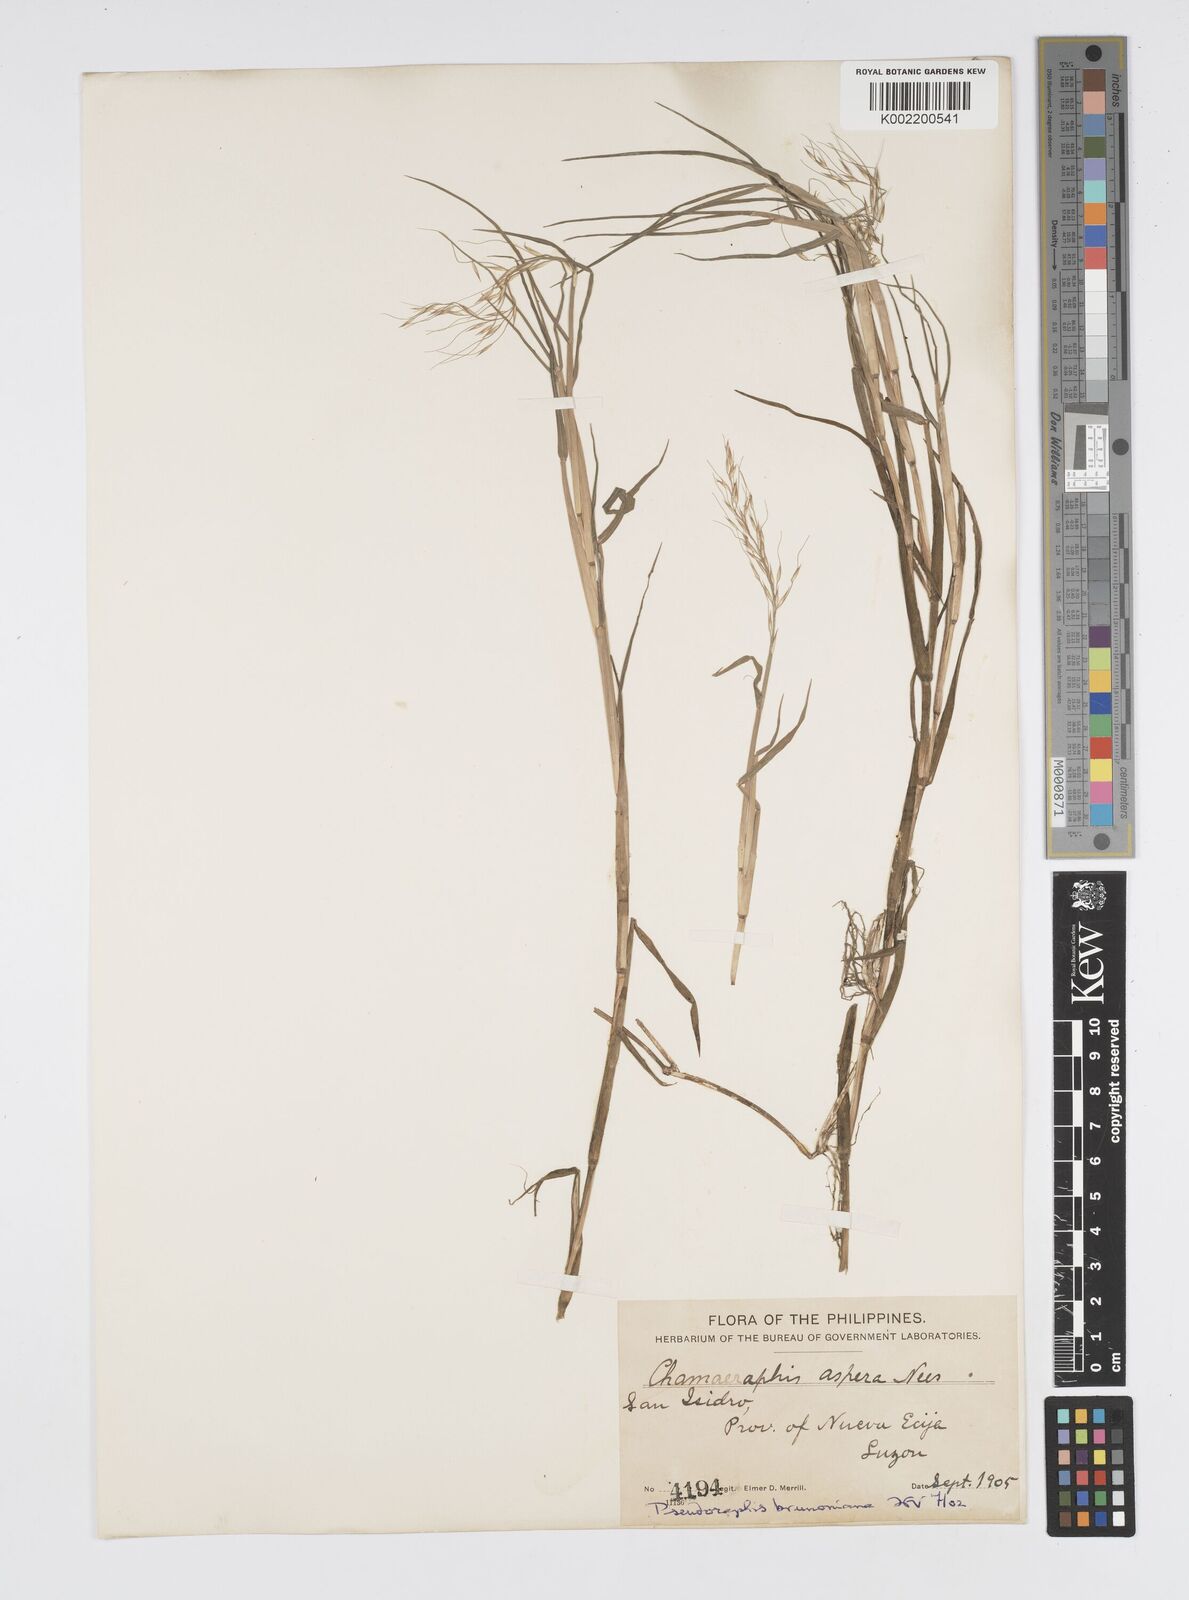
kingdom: Plantae
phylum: Tracheophyta
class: Liliopsida
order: Poales
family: Poaceae
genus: Pseudoraphis
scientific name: Pseudoraphis brunoniana
